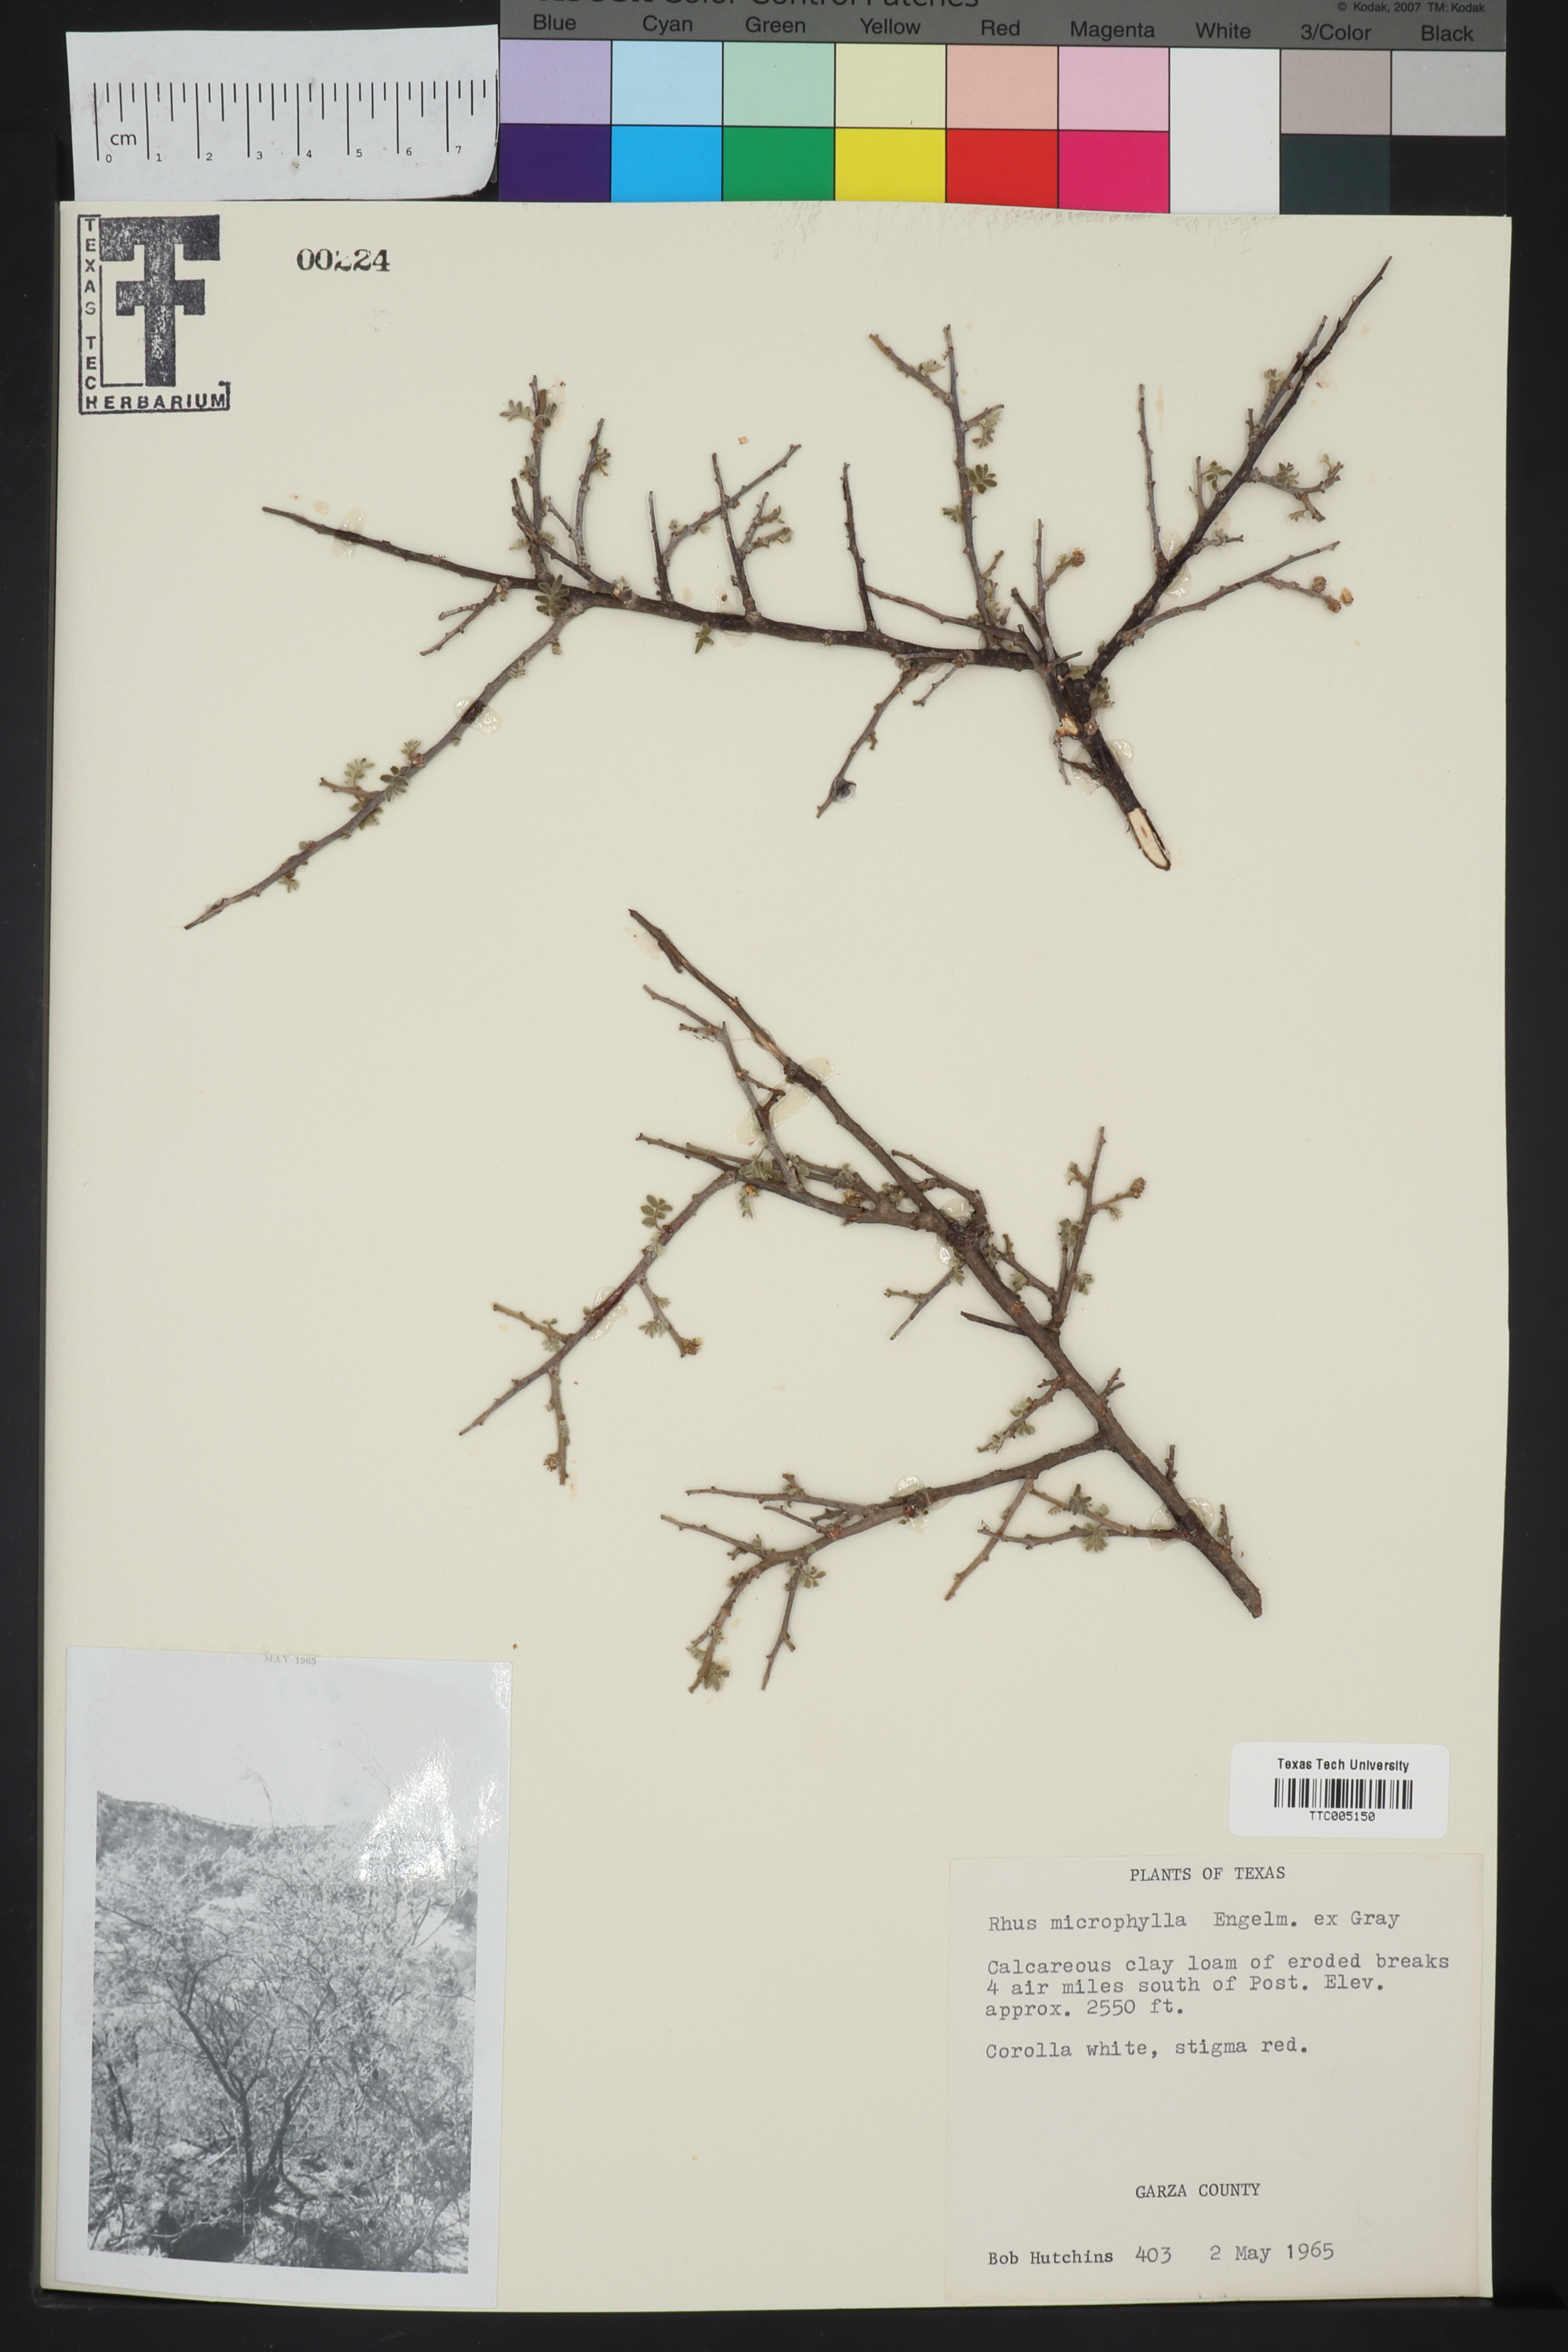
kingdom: Plantae
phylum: Tracheophyta
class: Magnoliopsida
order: Sapindales
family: Anacardiaceae
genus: Rhus
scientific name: Rhus microphylla
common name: Desert sumac
